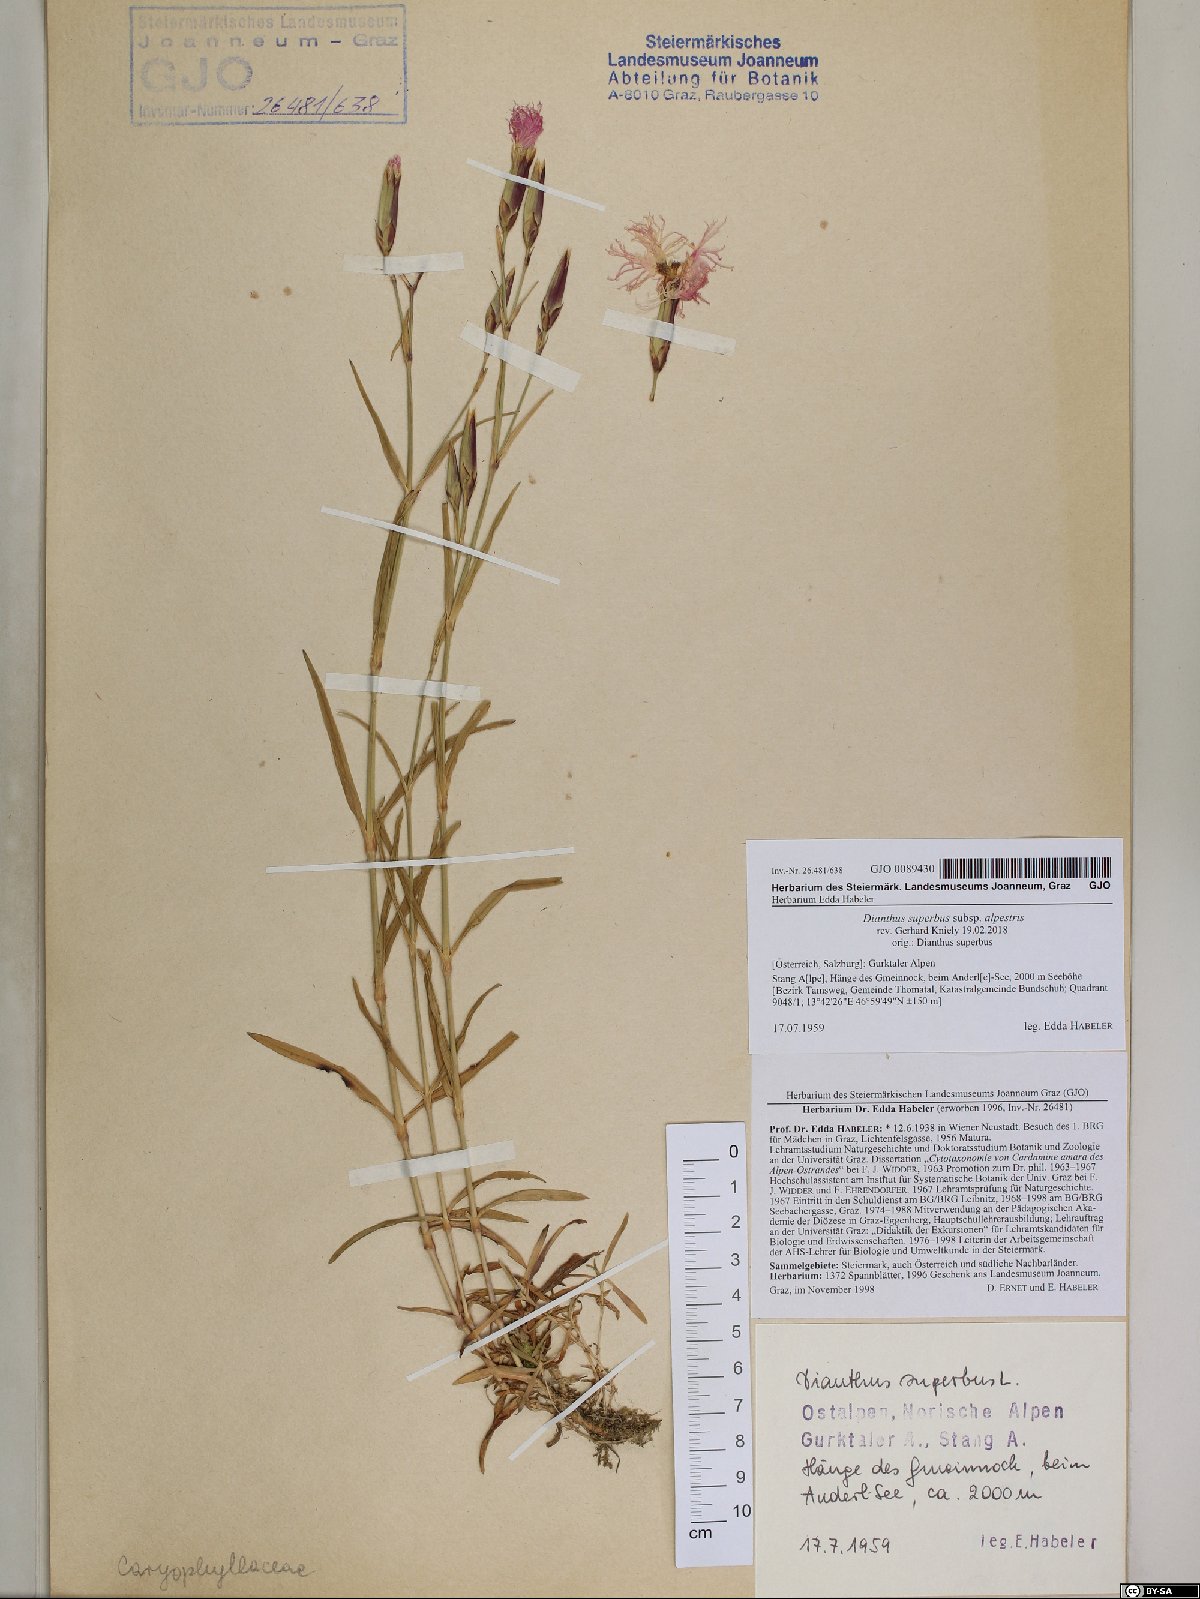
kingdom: Plantae
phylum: Tracheophyta
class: Magnoliopsida
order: Caryophyllales
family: Caryophyllaceae
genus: Dianthus
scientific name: Dianthus superbus
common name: Fringed pink
